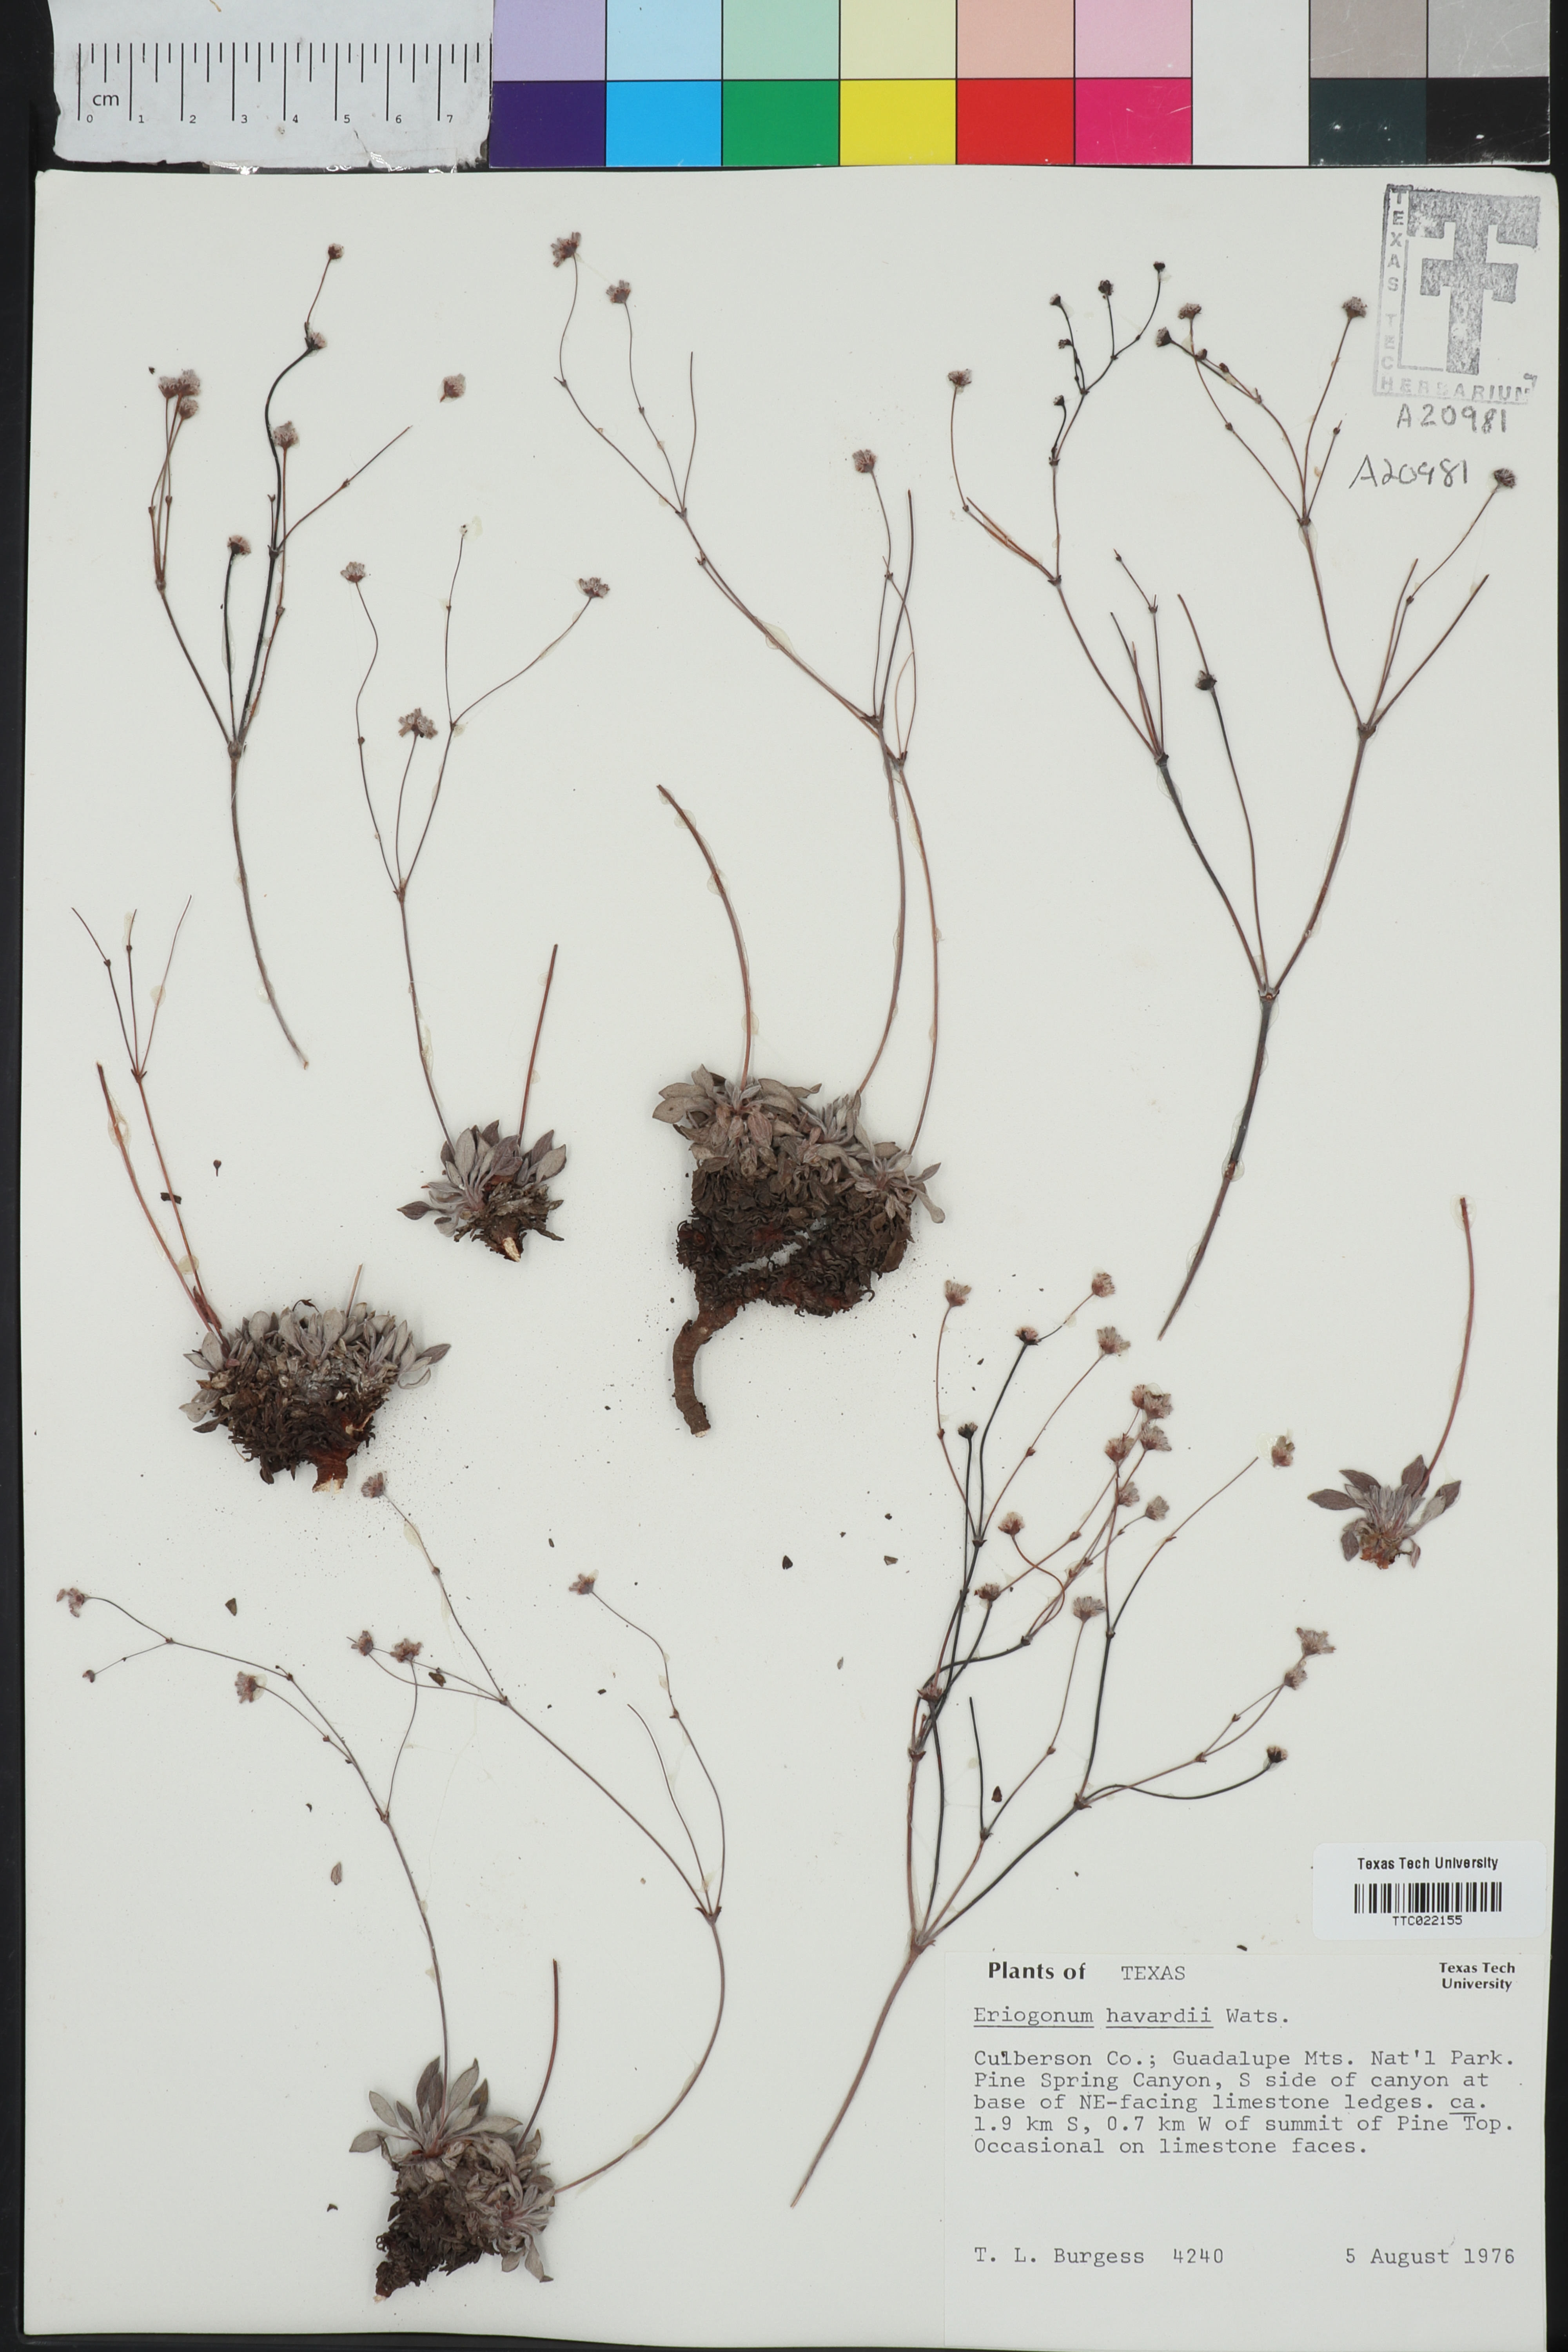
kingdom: Plantae
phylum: Tracheophyta
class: Magnoliopsida
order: Caryophyllales
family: Polygonaceae
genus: Eriogonum
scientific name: Eriogonum havardii
